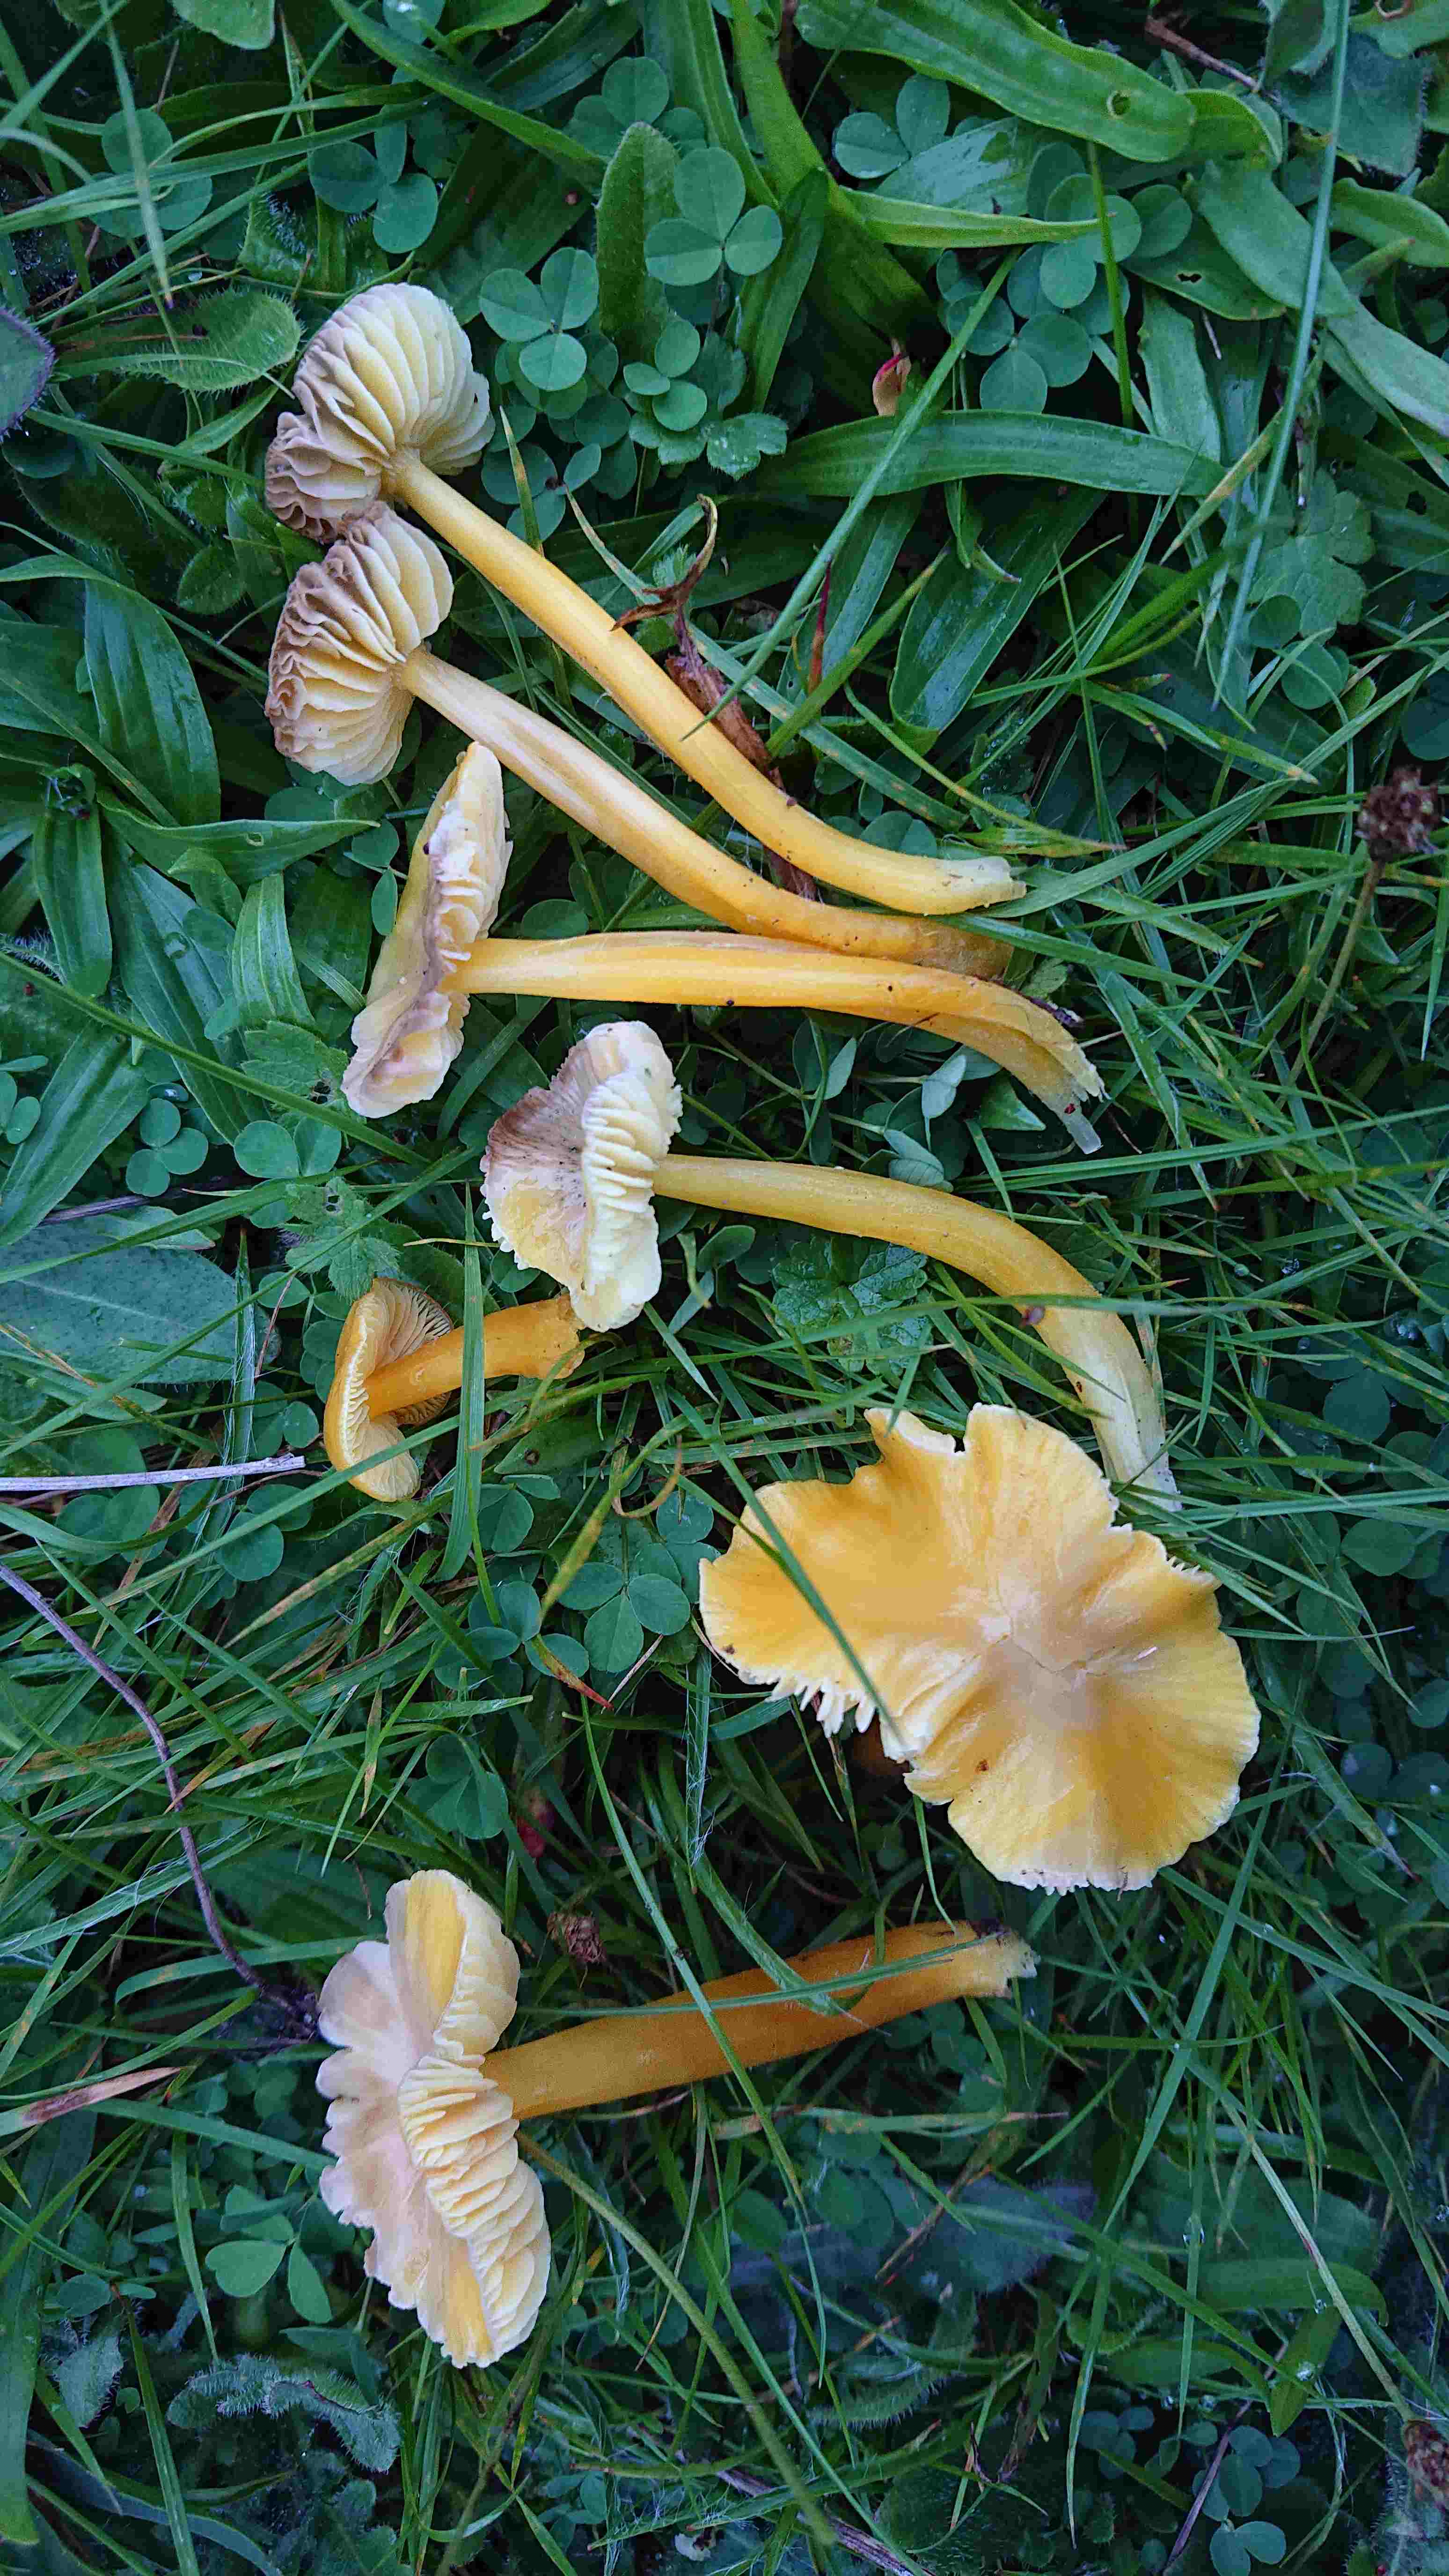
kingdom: Fungi
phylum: Basidiomycota
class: Agaricomycetes
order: Agaricales
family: Hygrophoraceae
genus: Hygrocybe
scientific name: Hygrocybe chlorophana
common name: gul vokshat
